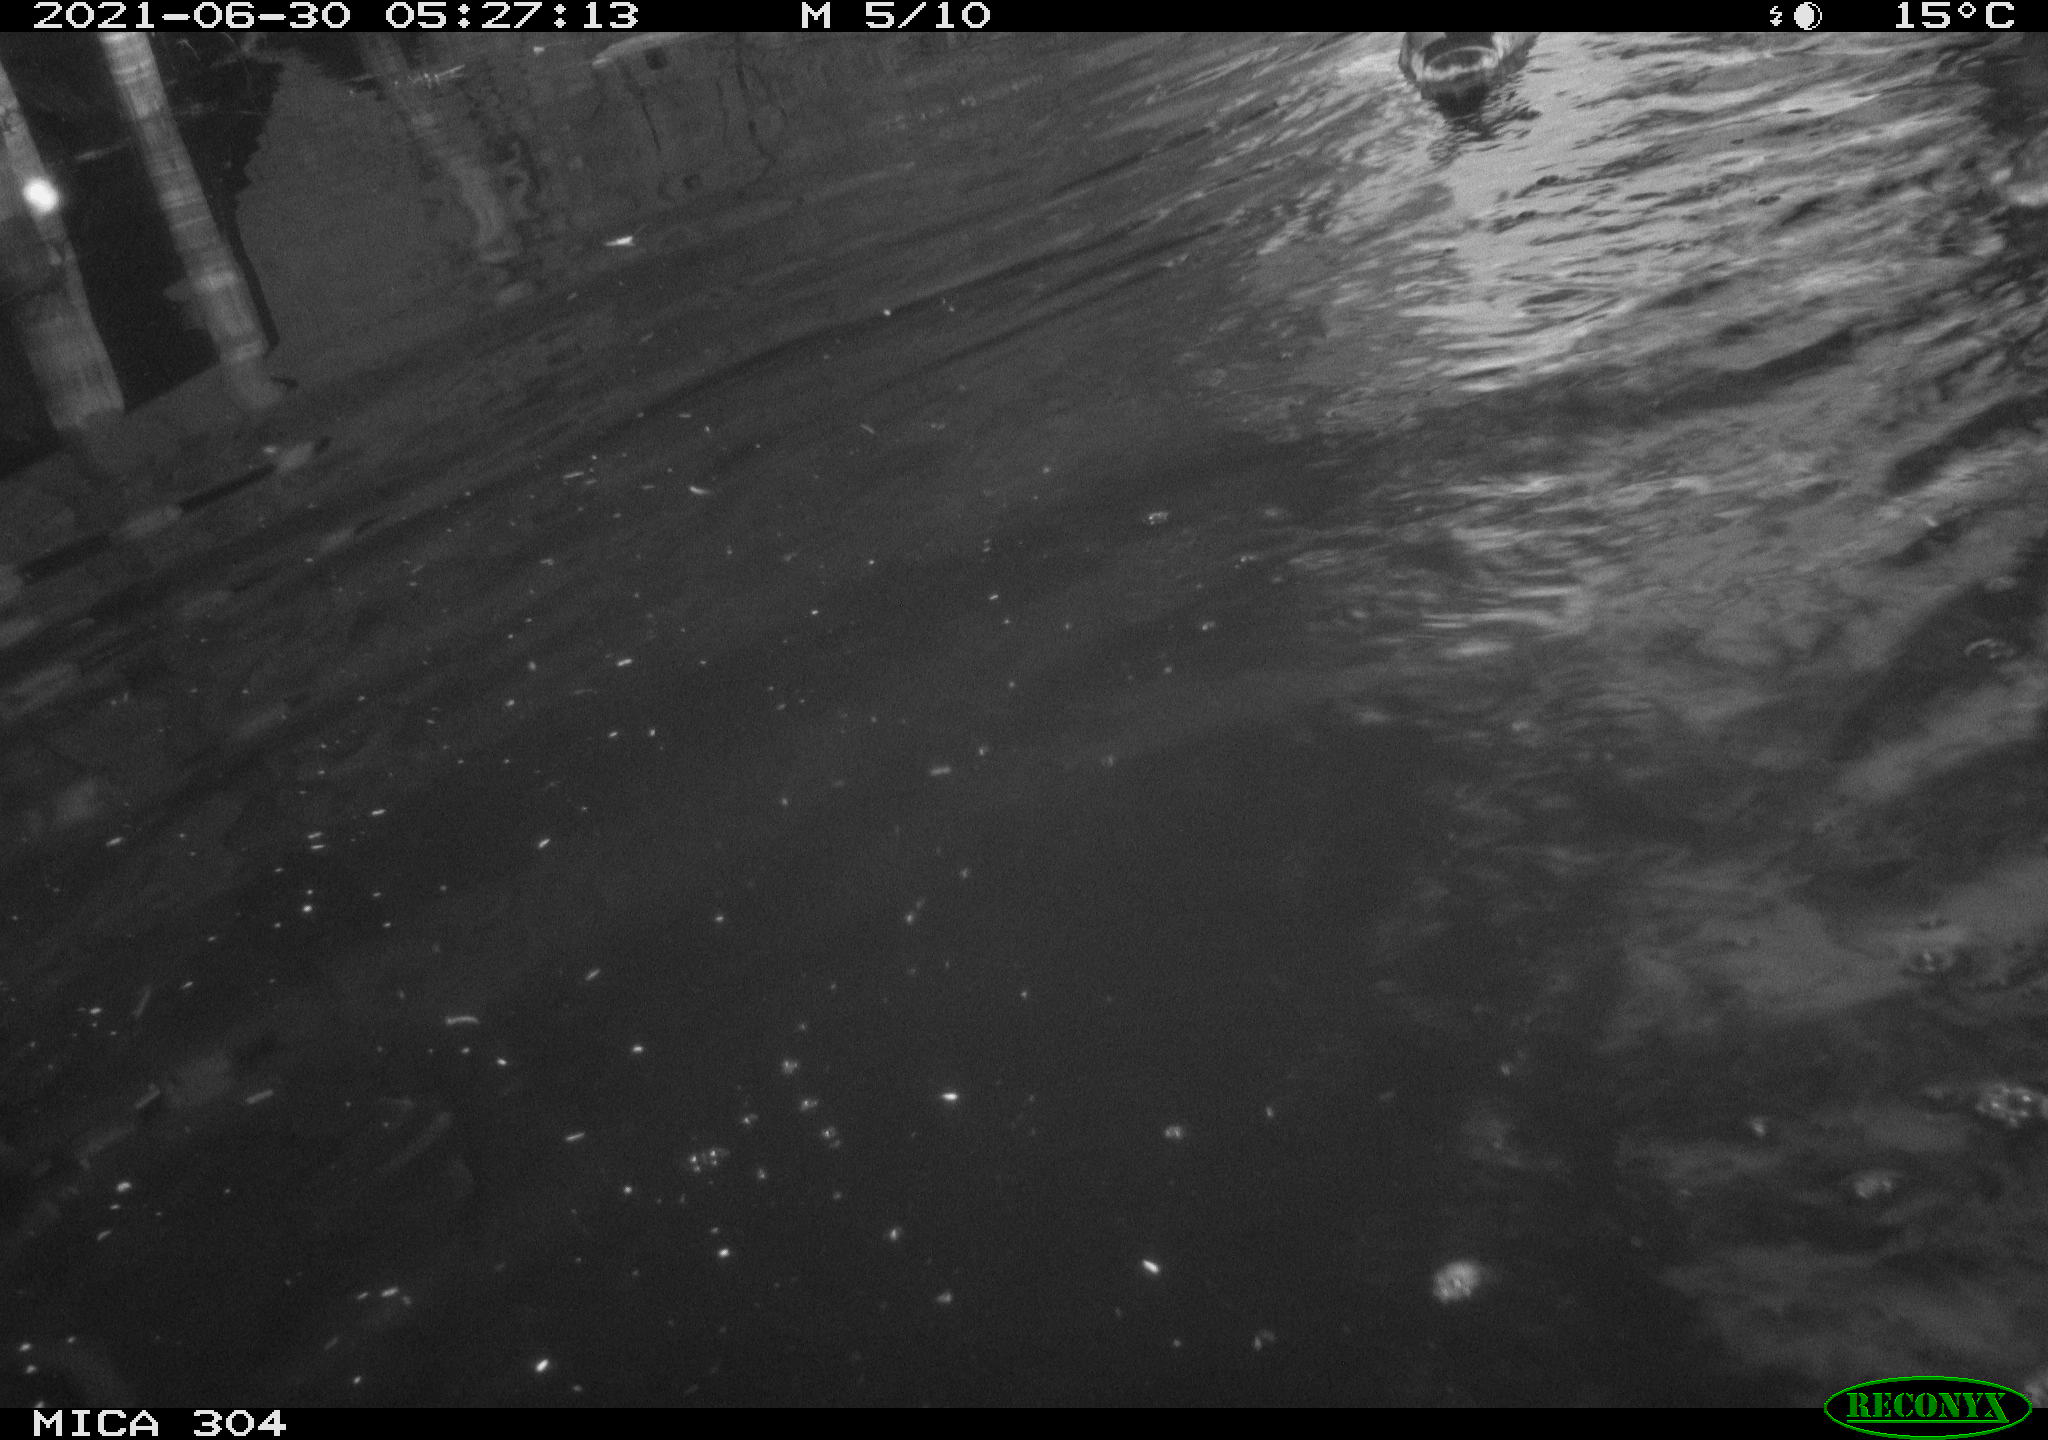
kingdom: Animalia
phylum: Chordata
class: Aves
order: Anseriformes
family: Anatidae
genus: Mareca
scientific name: Mareca strepera
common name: Gadwall
